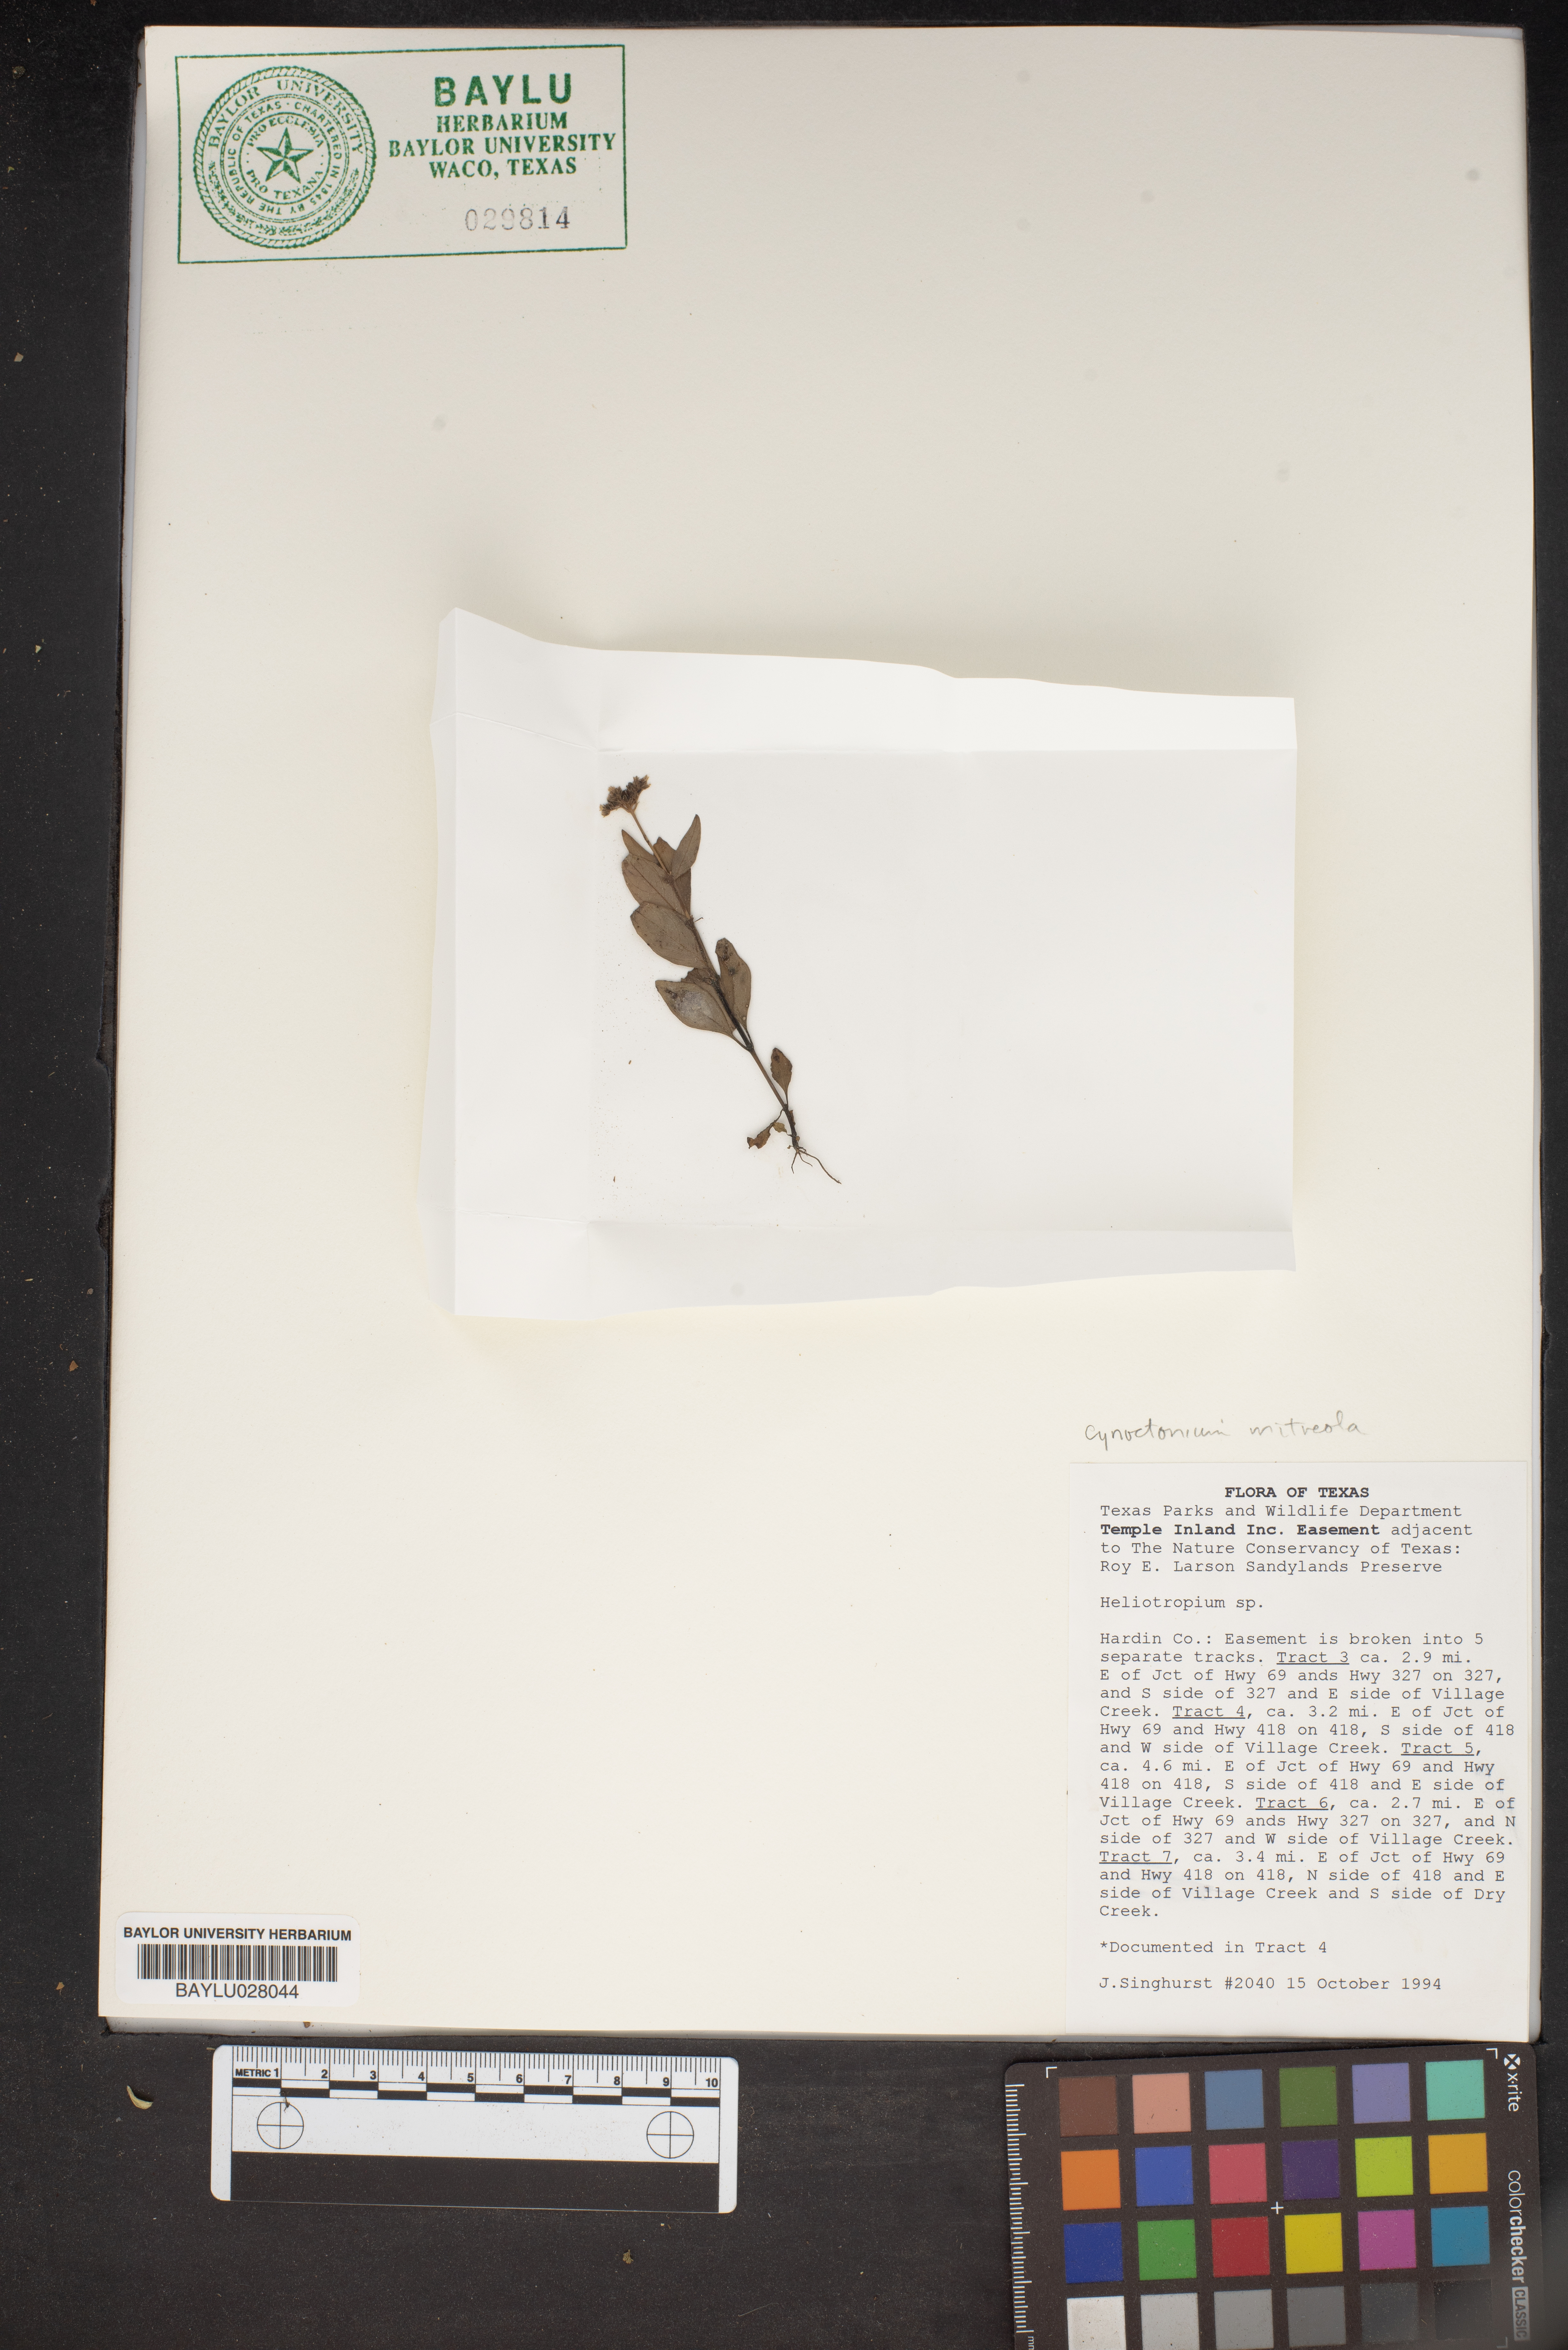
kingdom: Plantae
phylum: Tracheophyta
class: Magnoliopsida
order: Gentianales
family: Loganiaceae
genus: Mitreola
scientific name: Mitreola petiolata
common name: Lax hornpod
